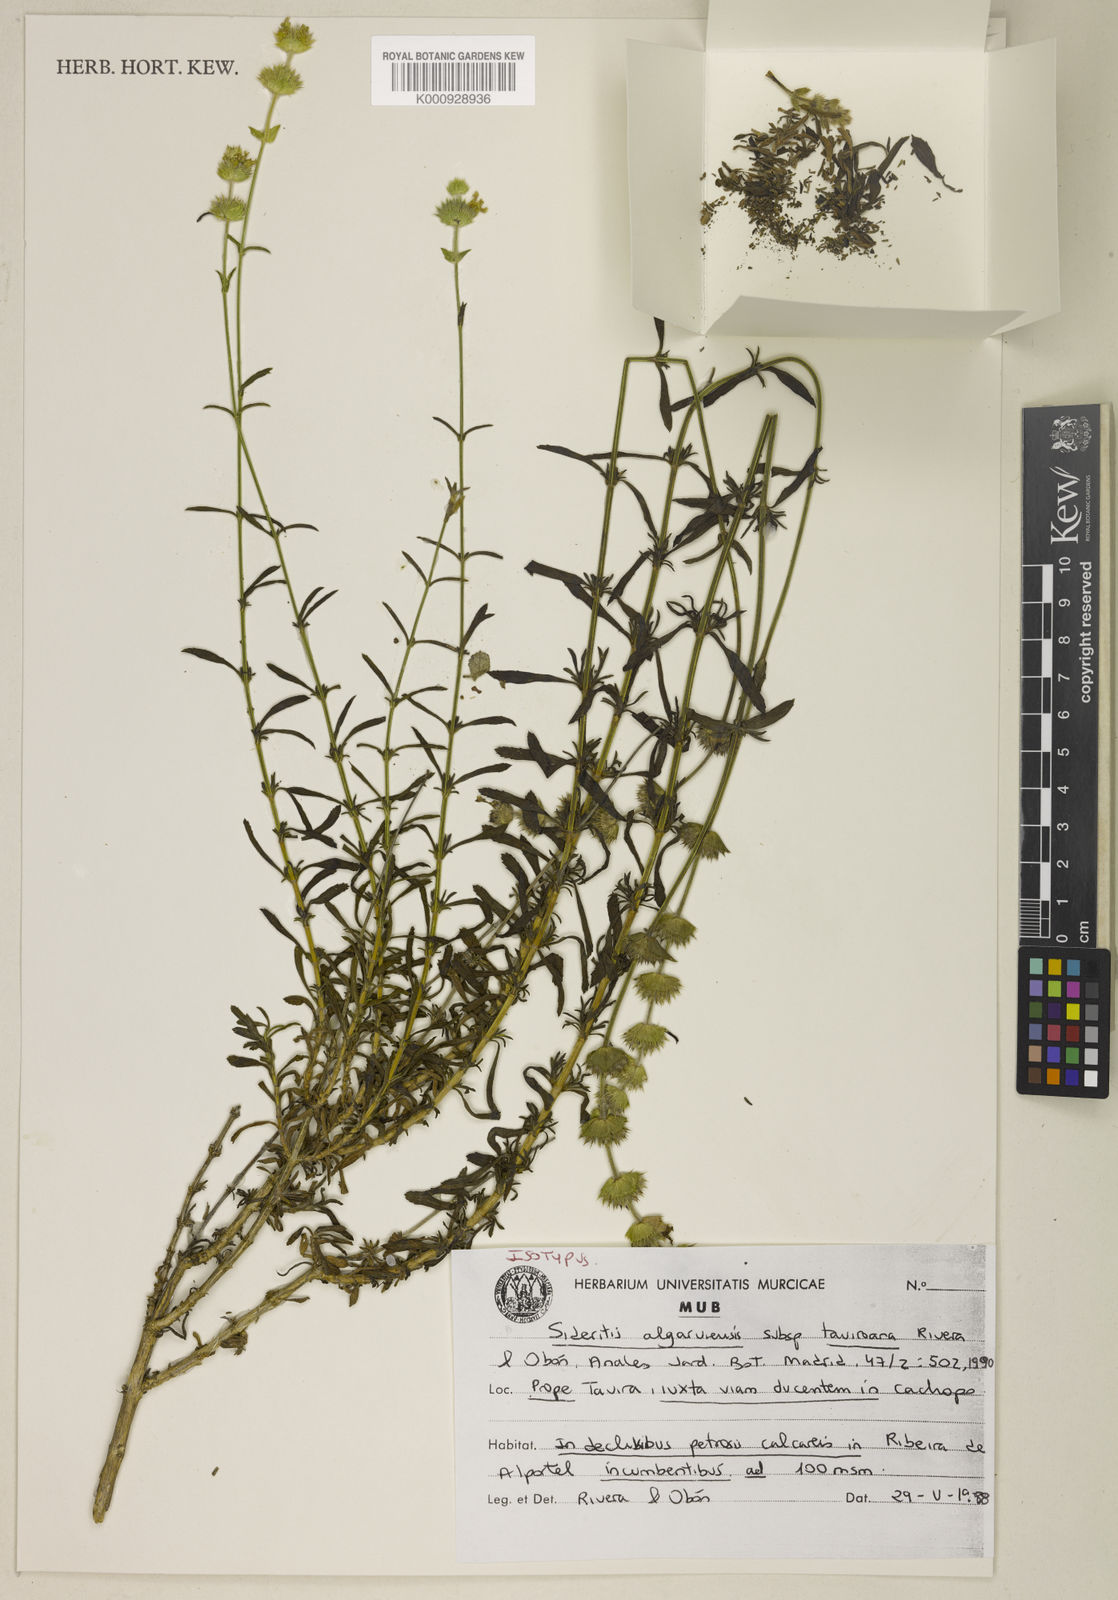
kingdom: Plantae
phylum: Tracheophyta
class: Magnoliopsida
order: Lamiales
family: Lamiaceae
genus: Sideritis
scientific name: Sideritis
